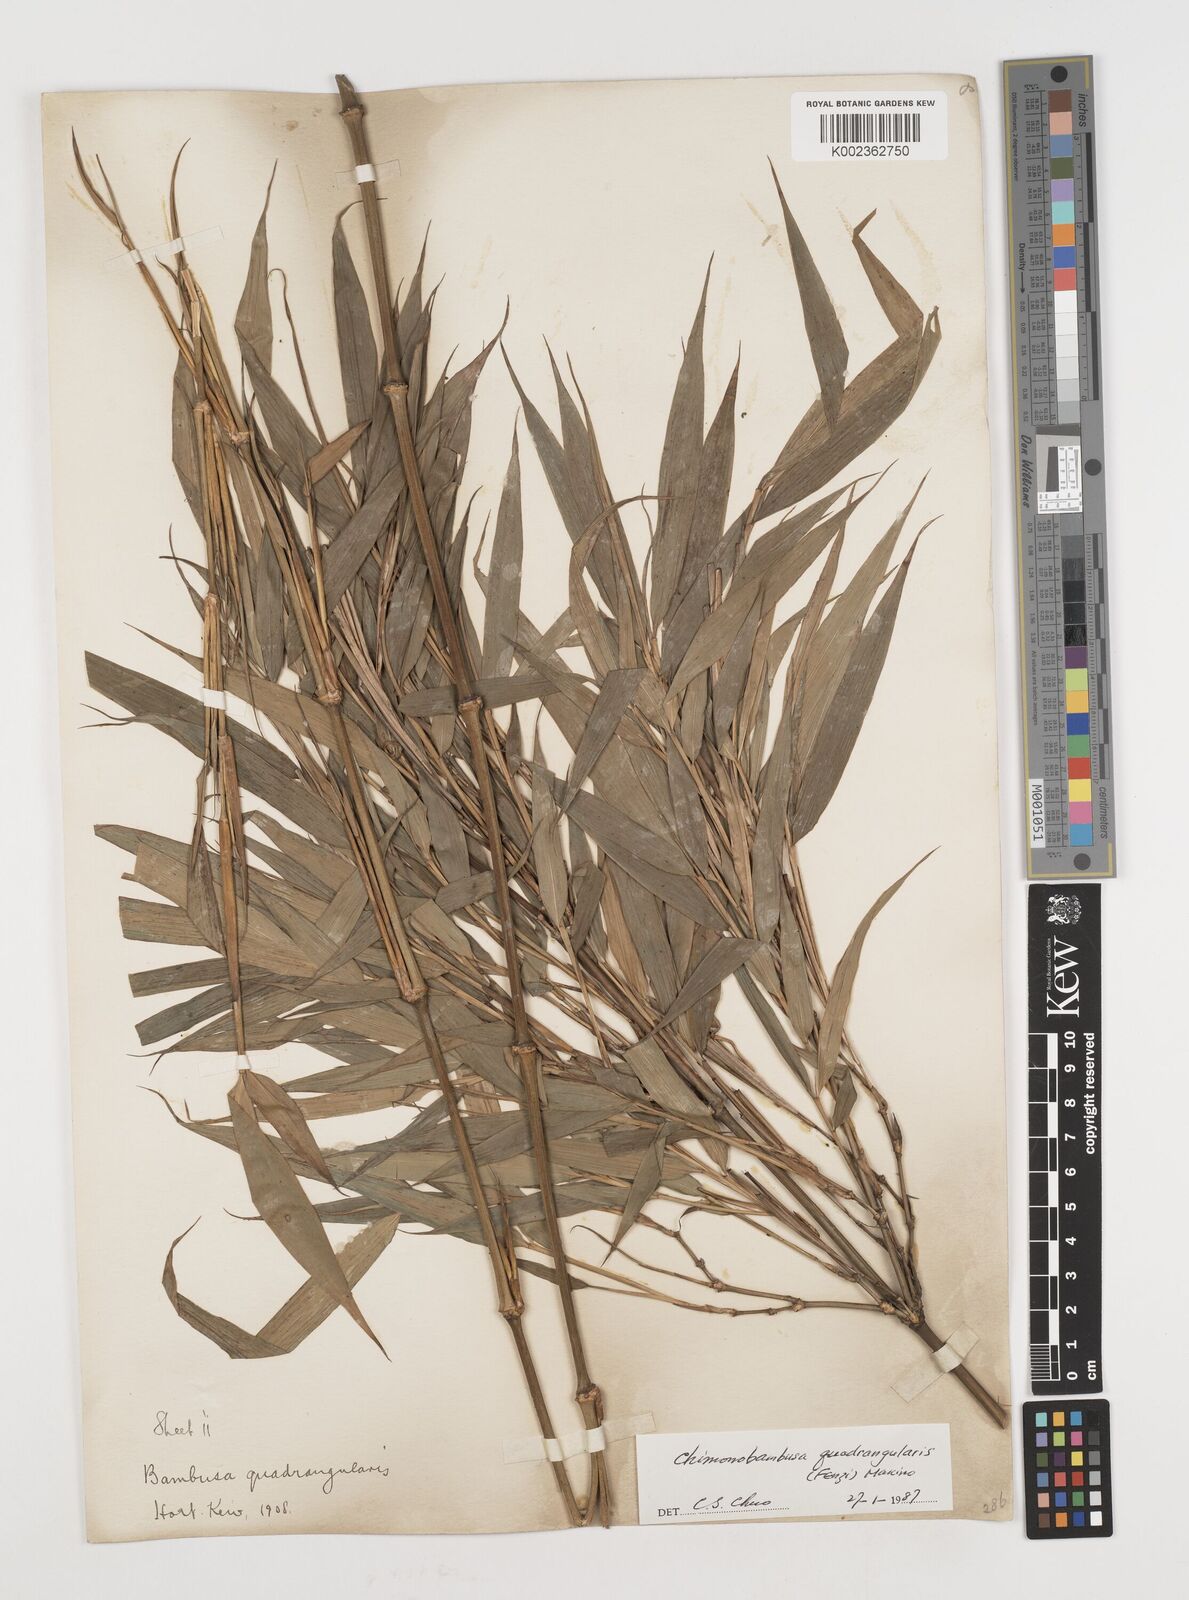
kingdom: Plantae
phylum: Tracheophyta
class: Liliopsida
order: Poales
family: Poaceae
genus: Chimonobambusa
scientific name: Chimonobambusa quadrangularis
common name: Square-stemmed bamboo
